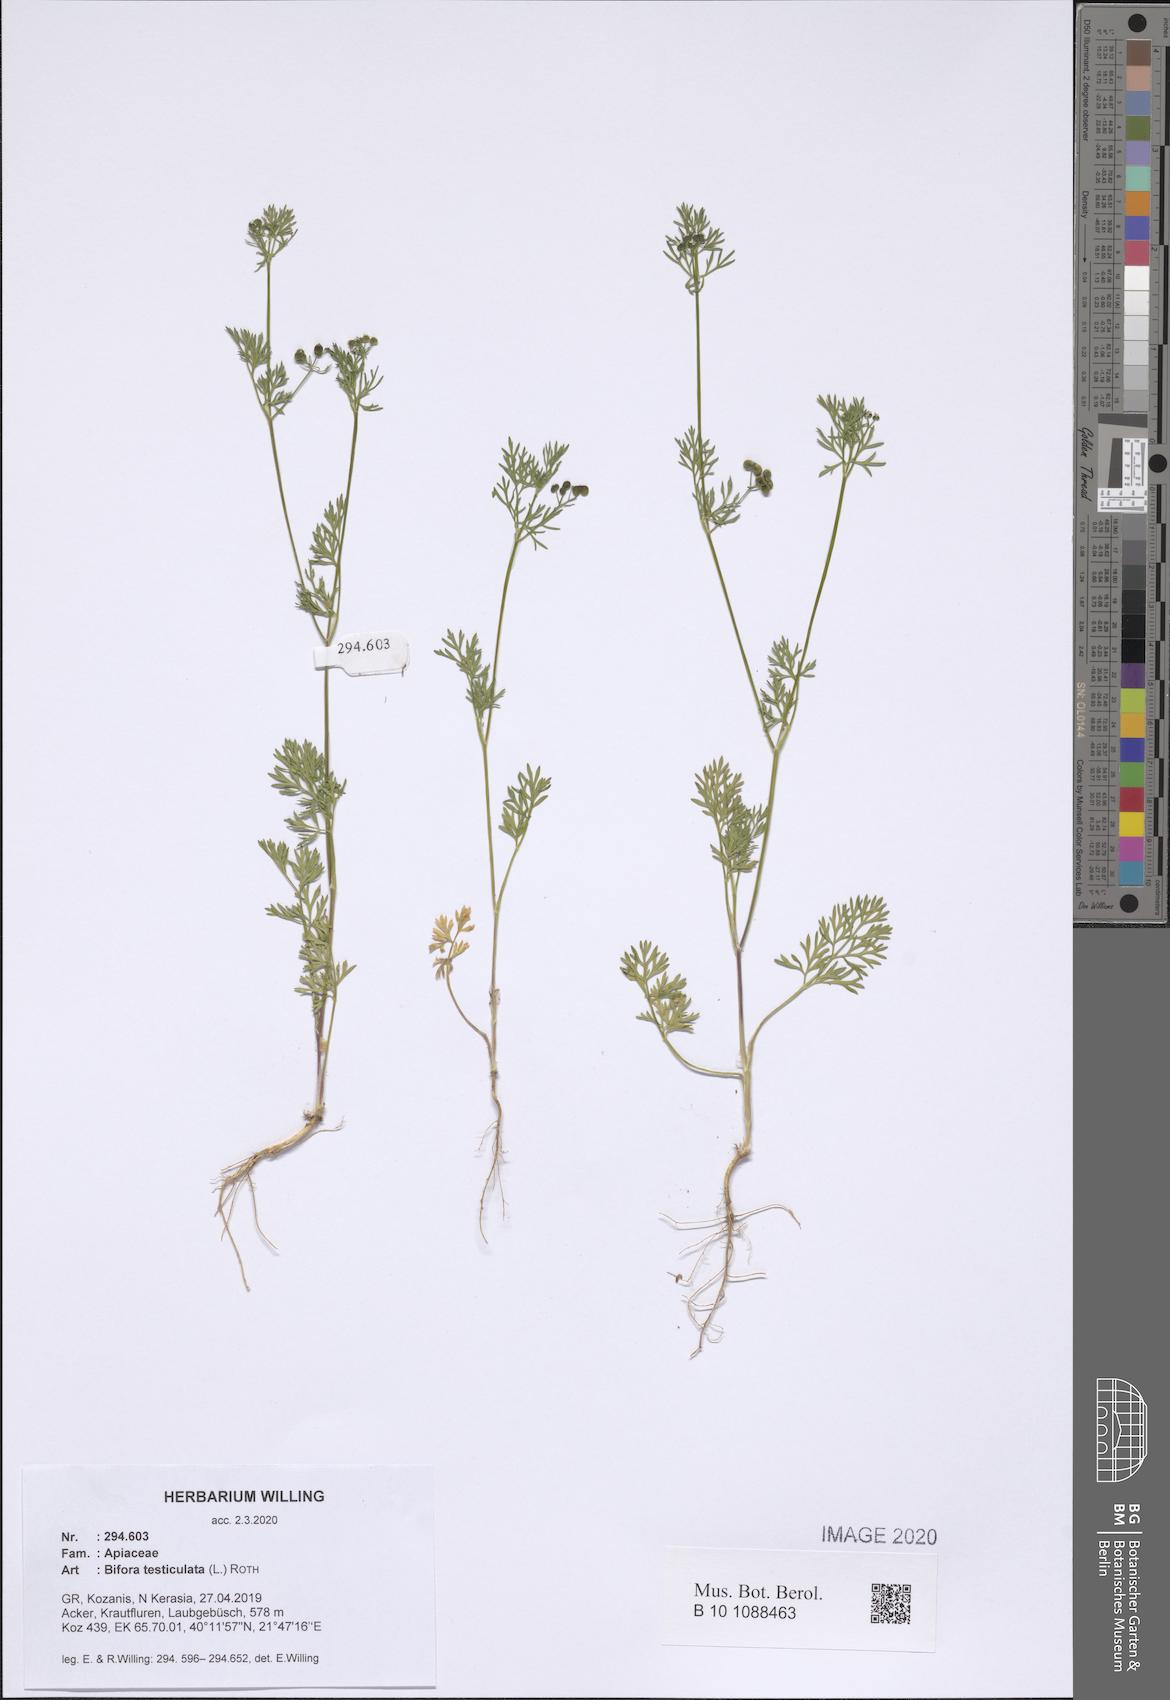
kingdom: Plantae
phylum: Tracheophyta
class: Magnoliopsida
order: Apiales
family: Apiaceae
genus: Bifora
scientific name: Bifora testiculata
